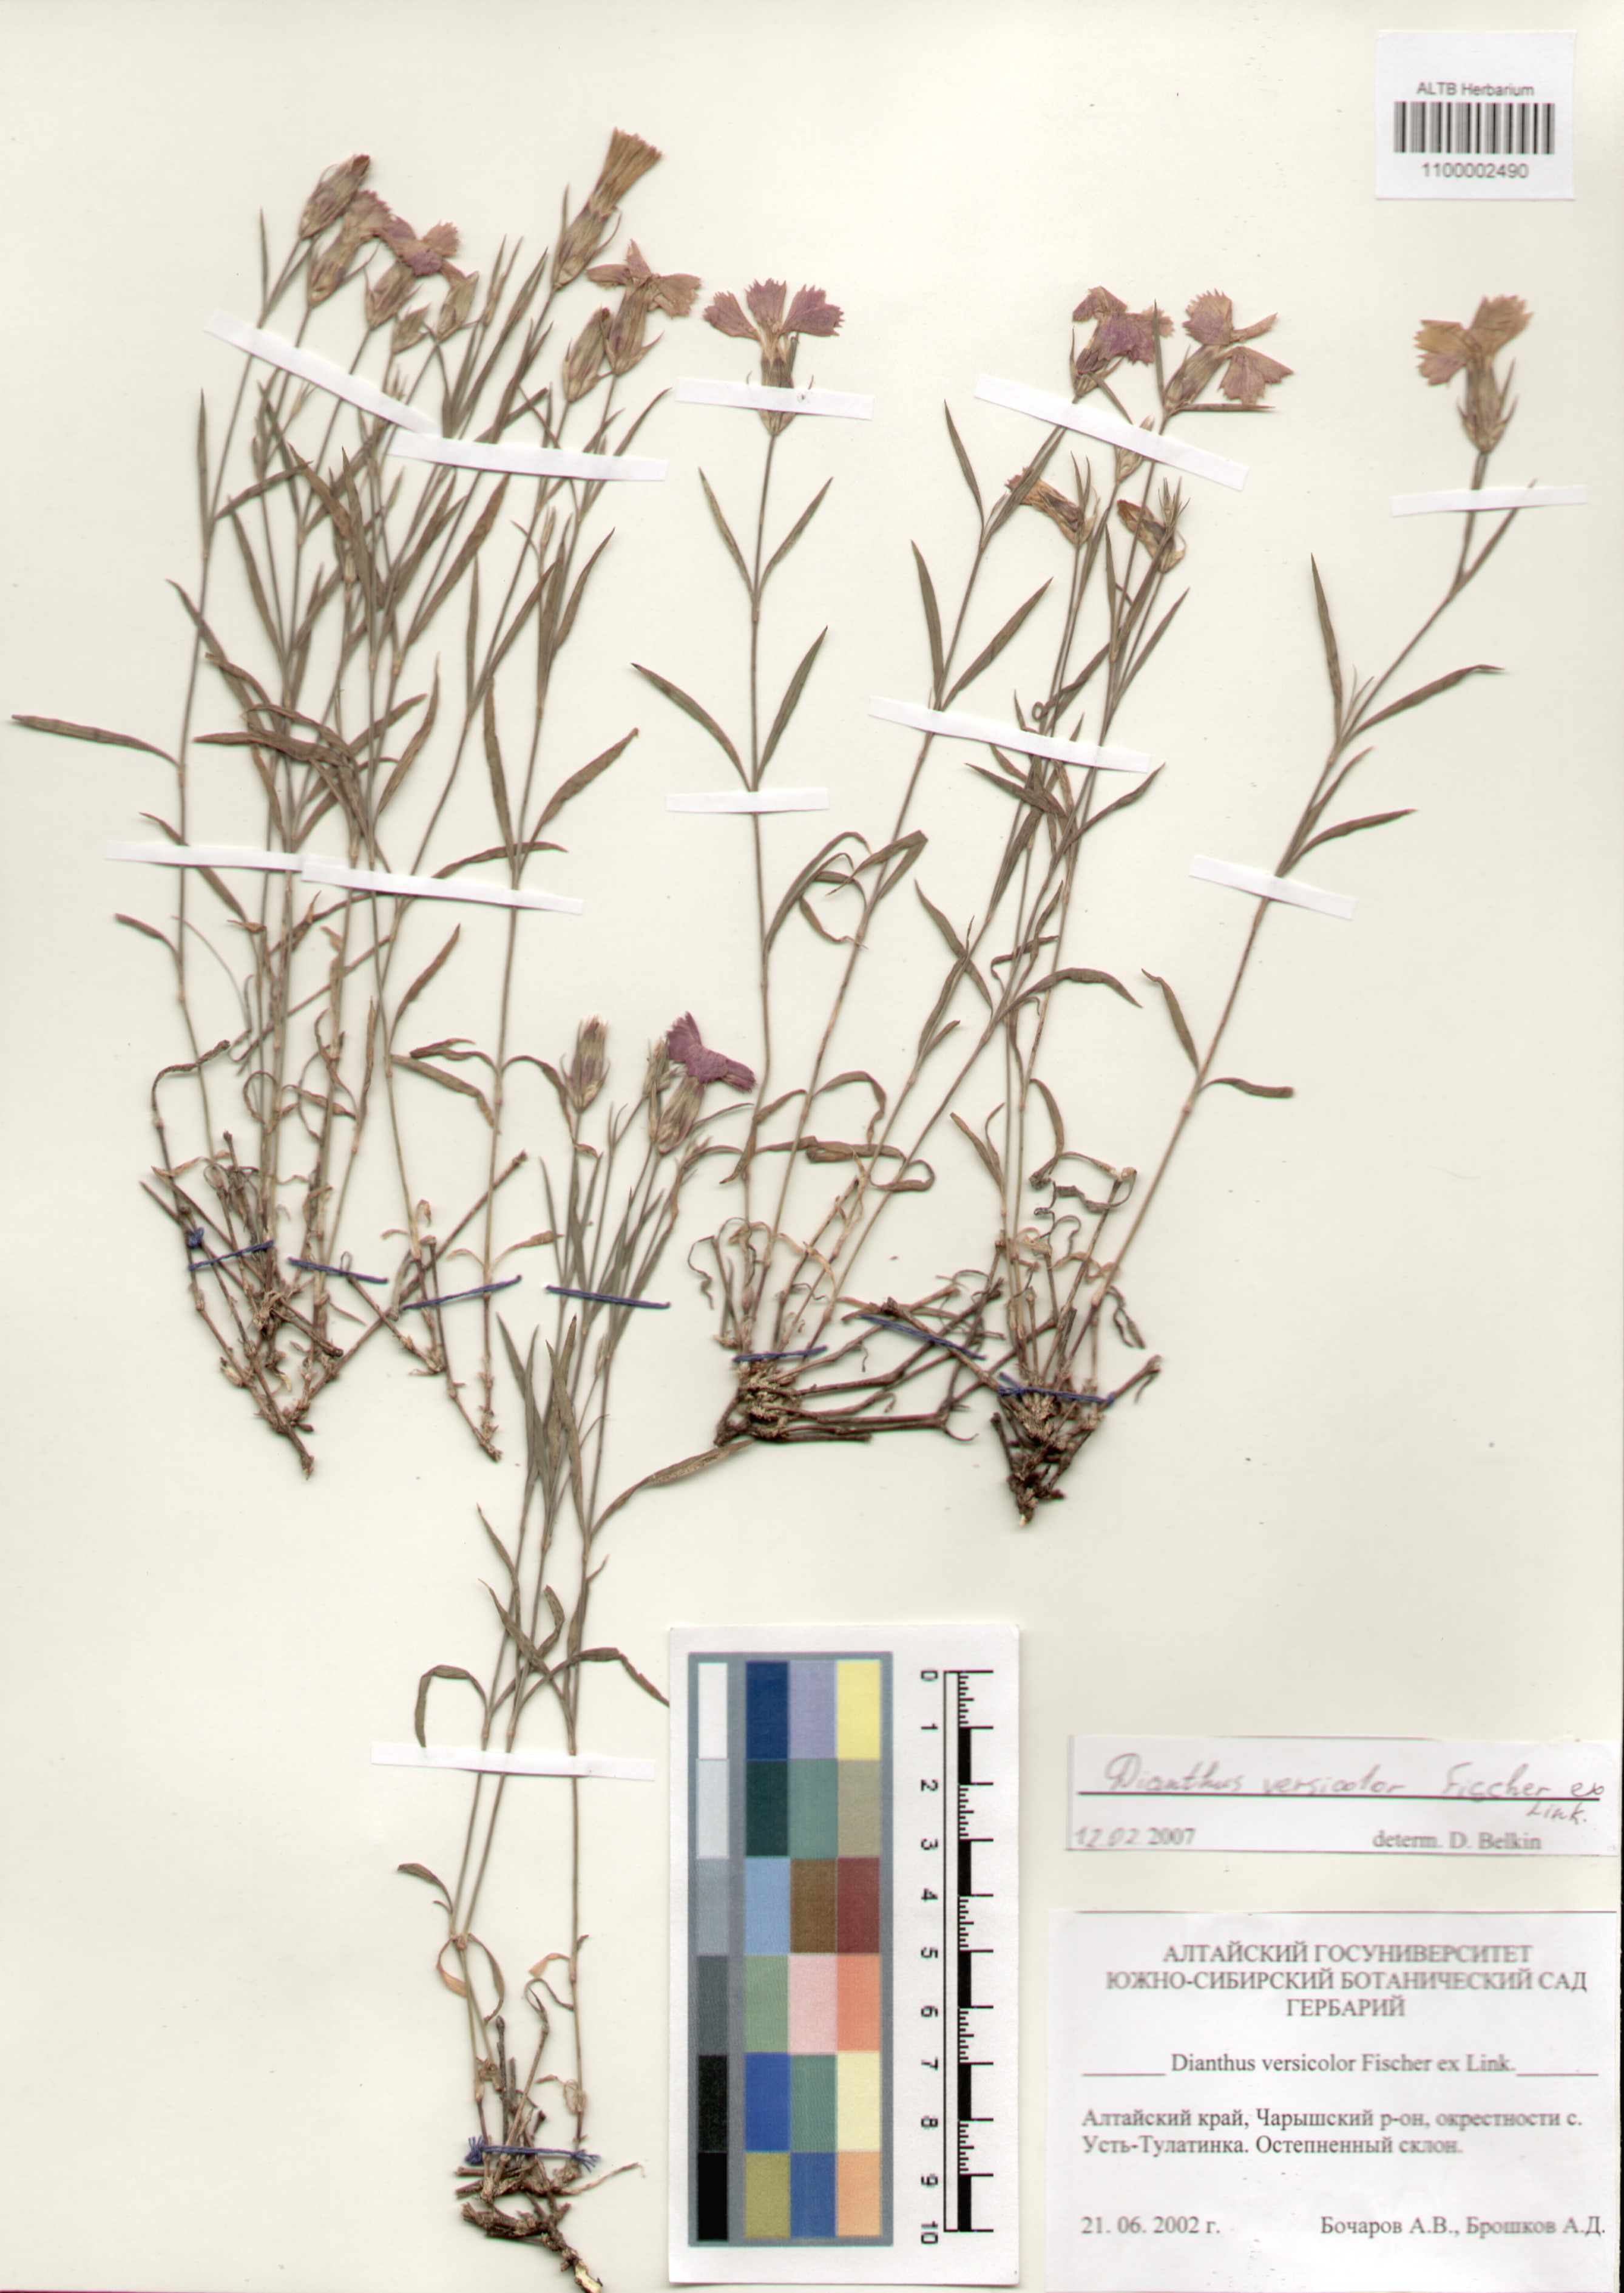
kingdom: Plantae
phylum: Tracheophyta
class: Magnoliopsida
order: Caryophyllales
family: Caryophyllaceae
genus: Dianthus
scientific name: Dianthus chinensis
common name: Rainbow pink
